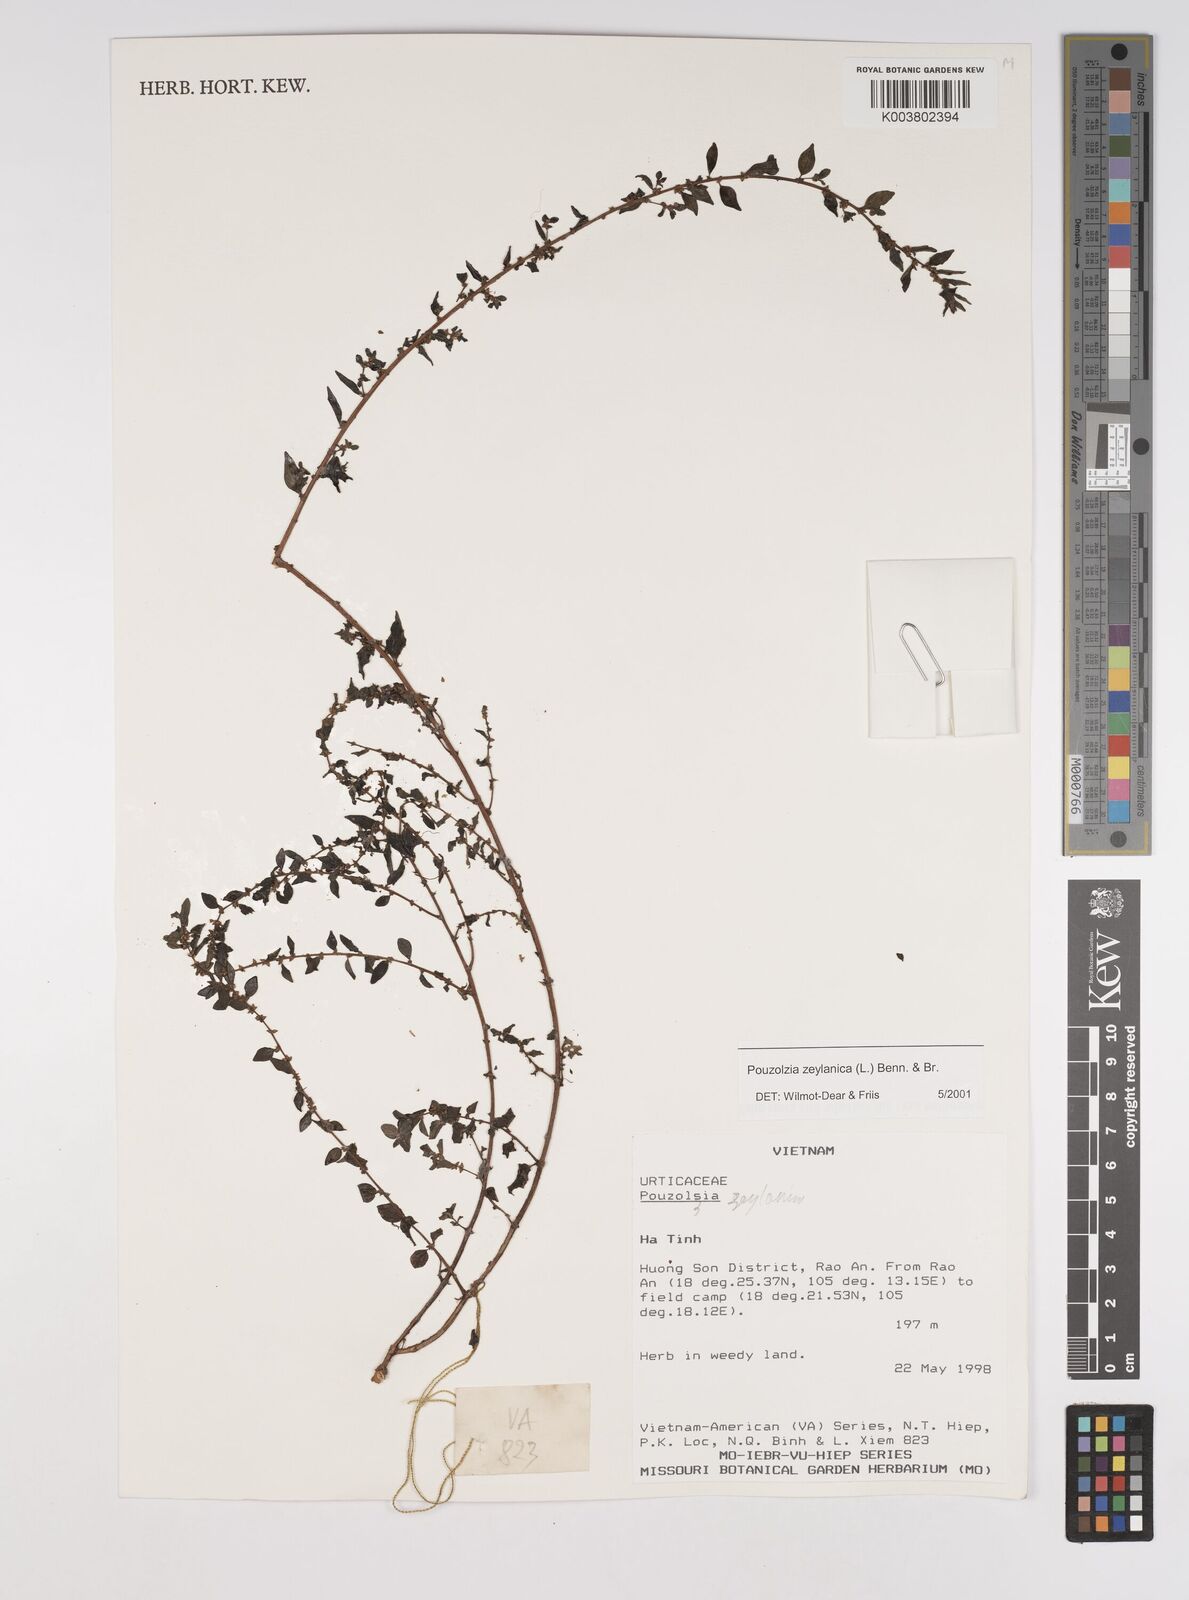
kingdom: Plantae
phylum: Tracheophyta
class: Magnoliopsida
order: Rosales
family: Urticaceae
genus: Pouzolzia
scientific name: Pouzolzia zeylanica
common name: Graceful pouzolzsbush
